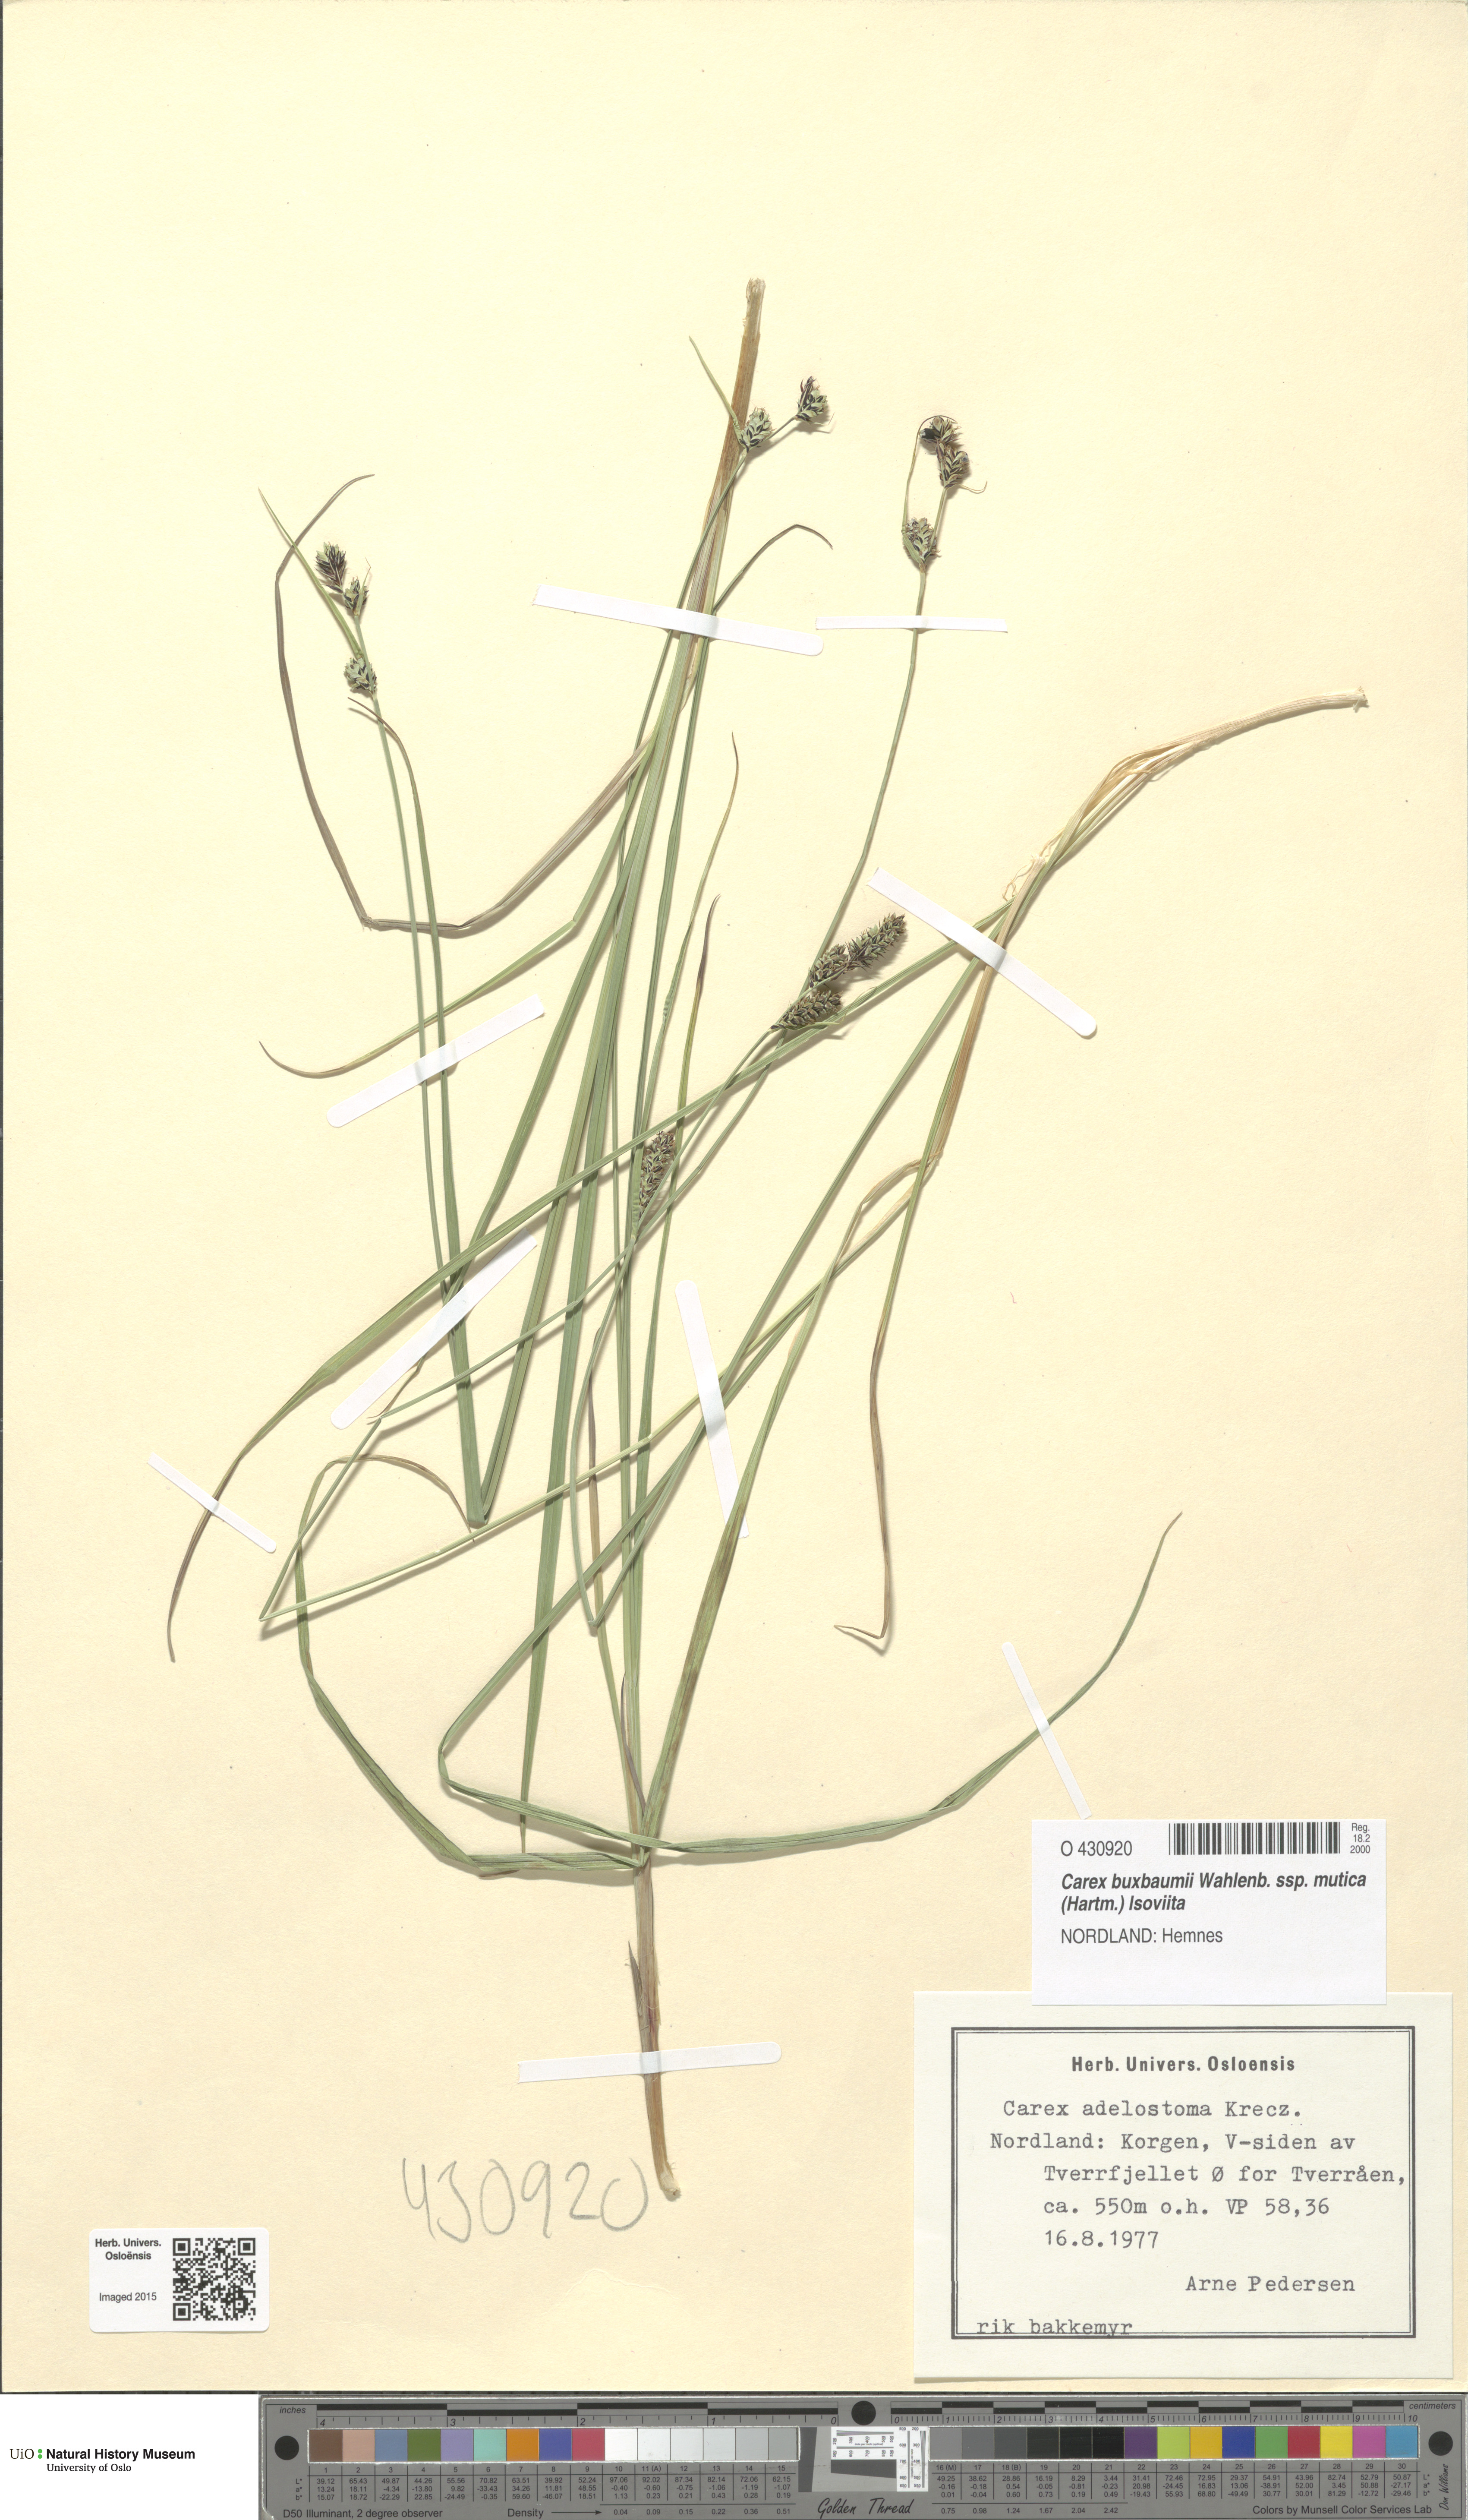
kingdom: Plantae
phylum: Tracheophyta
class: Liliopsida
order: Poales
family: Cyperaceae
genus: Carex
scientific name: Carex adelostoma
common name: Circumpolar sedge
